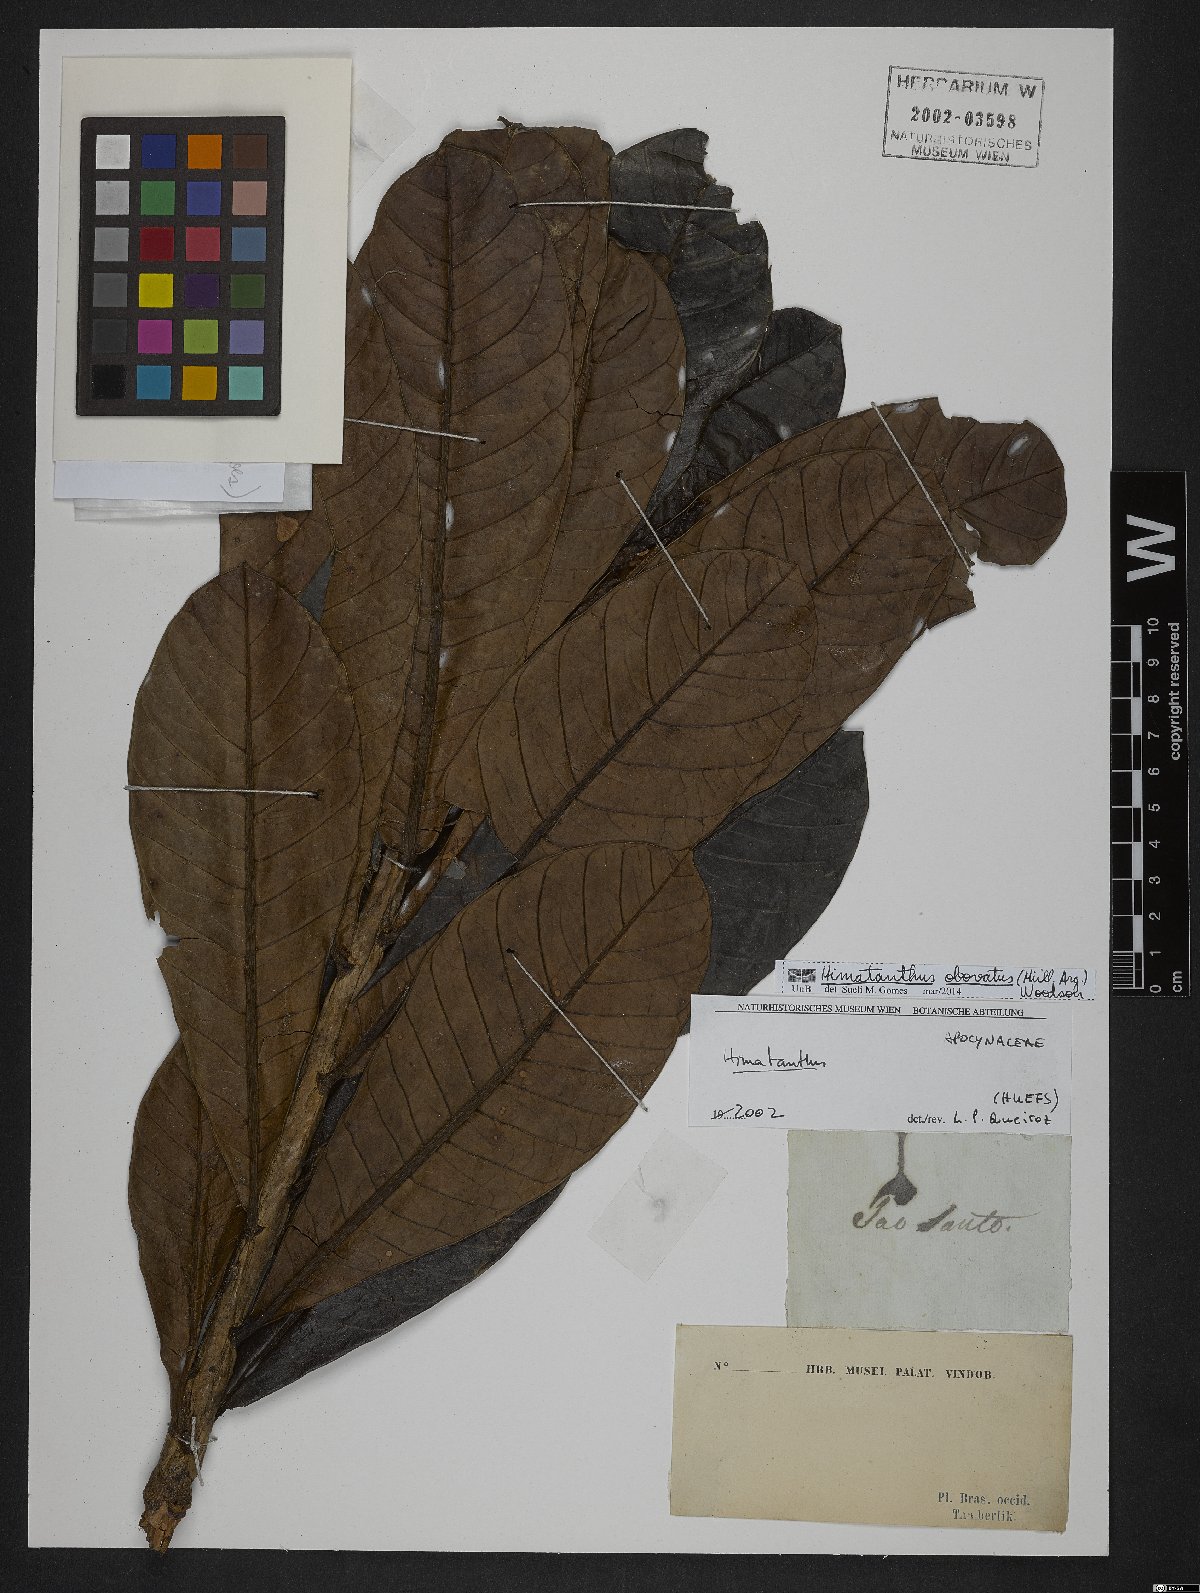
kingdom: Plantae
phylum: Tracheophyta
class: Magnoliopsida
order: Gentianales
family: Apocynaceae
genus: Himatanthus
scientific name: Himatanthus obovatus
